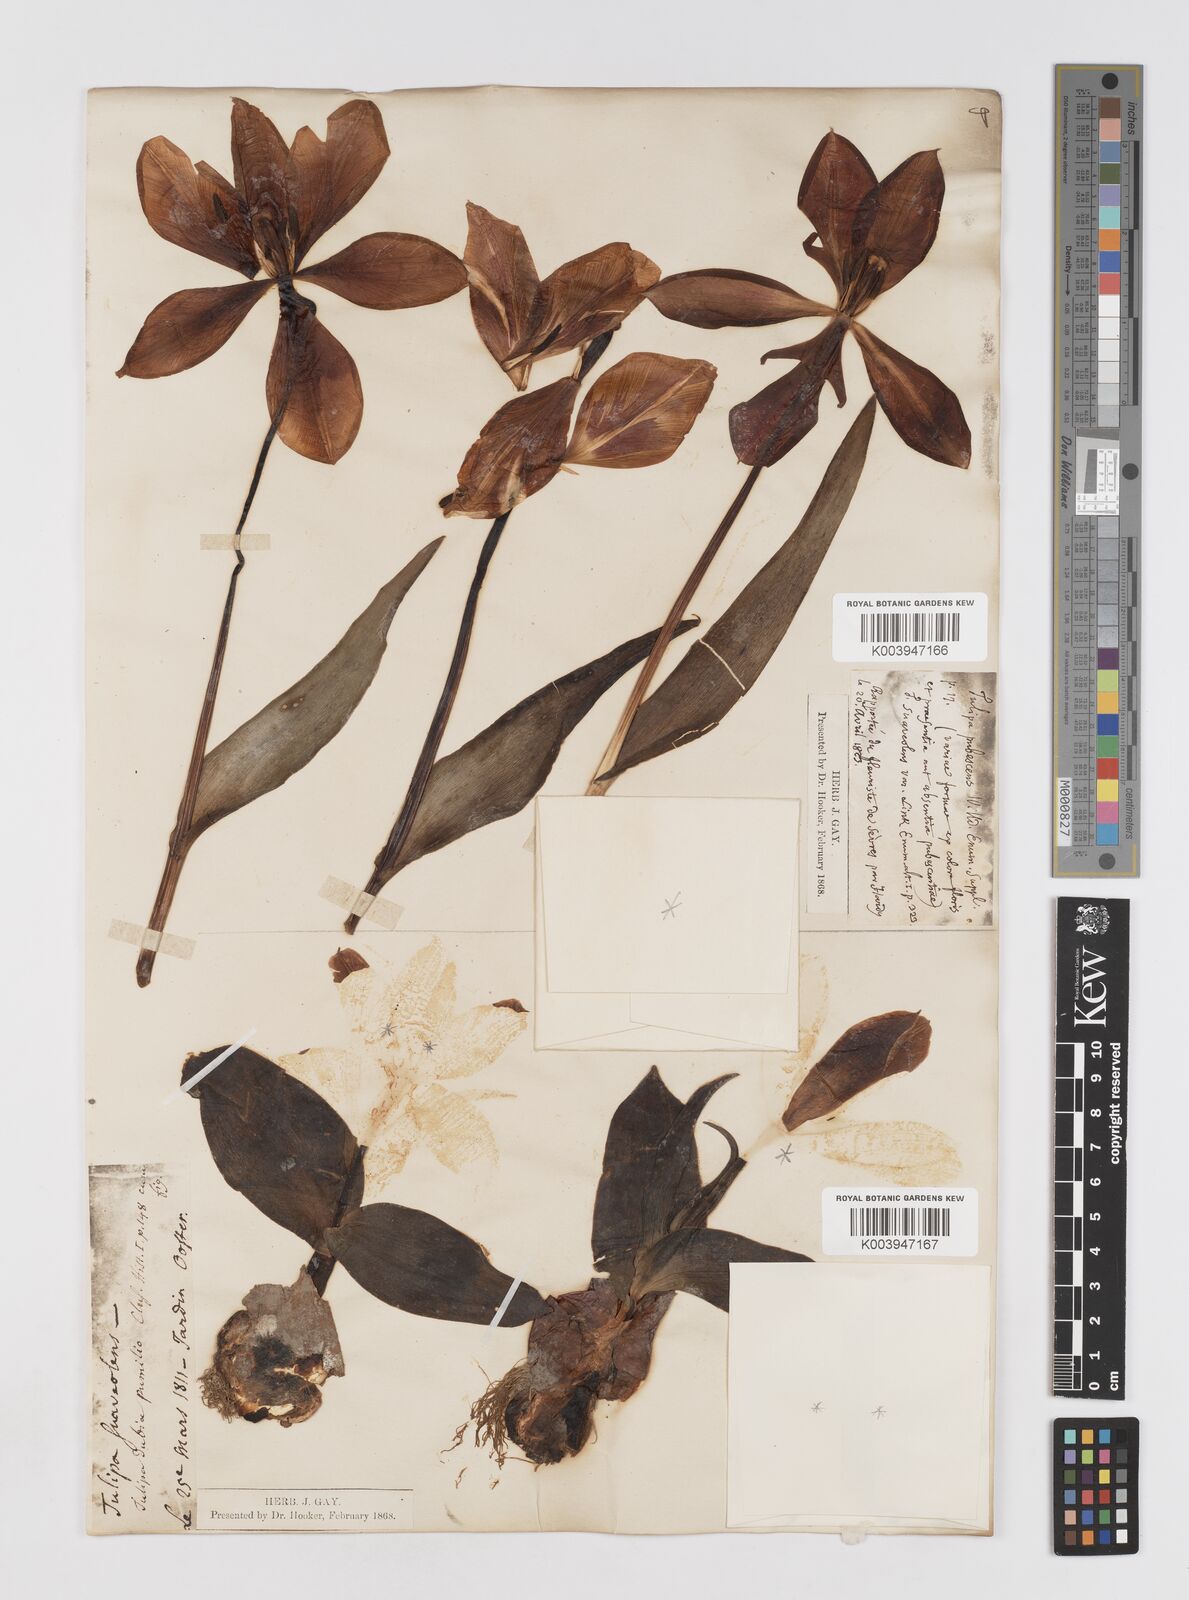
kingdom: Plantae
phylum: Tracheophyta
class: Liliopsida
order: Liliales
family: Liliaceae
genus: Tulipa
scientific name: Tulipa gesneriana
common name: Garden tulip
